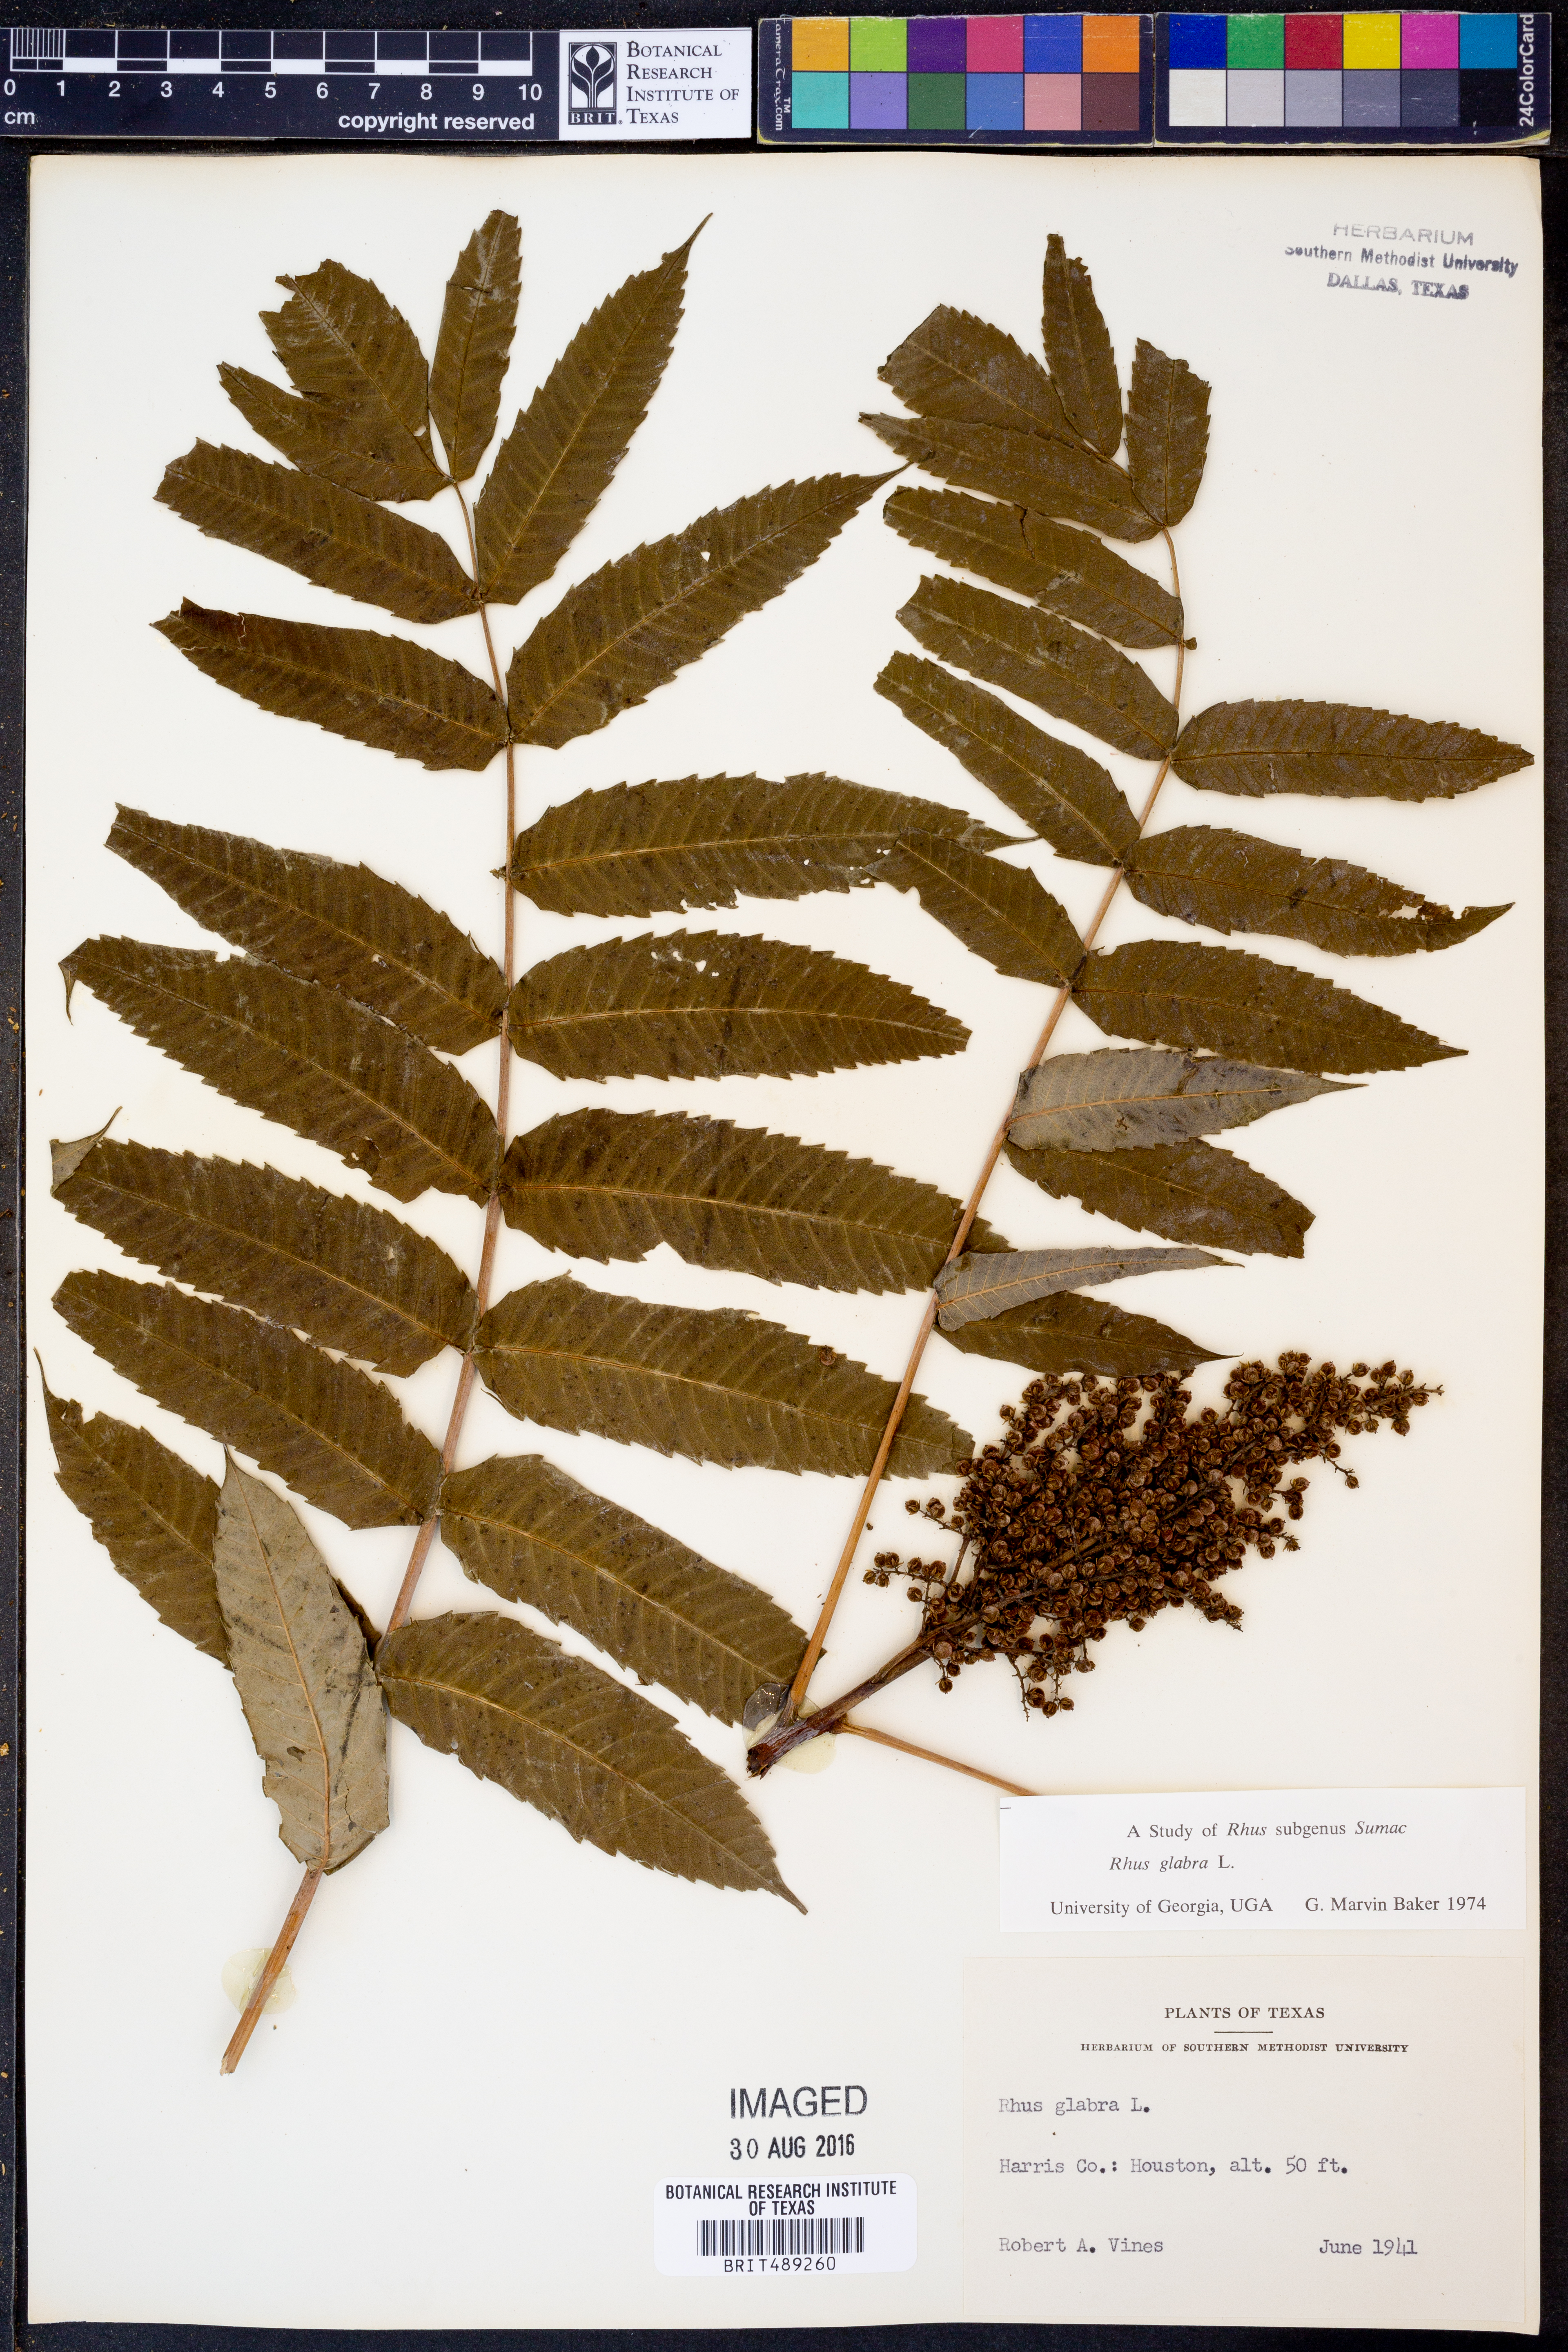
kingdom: Plantae
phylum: Tracheophyta
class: Magnoliopsida
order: Sapindales
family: Anacardiaceae
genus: Rhus
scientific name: Rhus glabra
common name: Scarlet sumac
